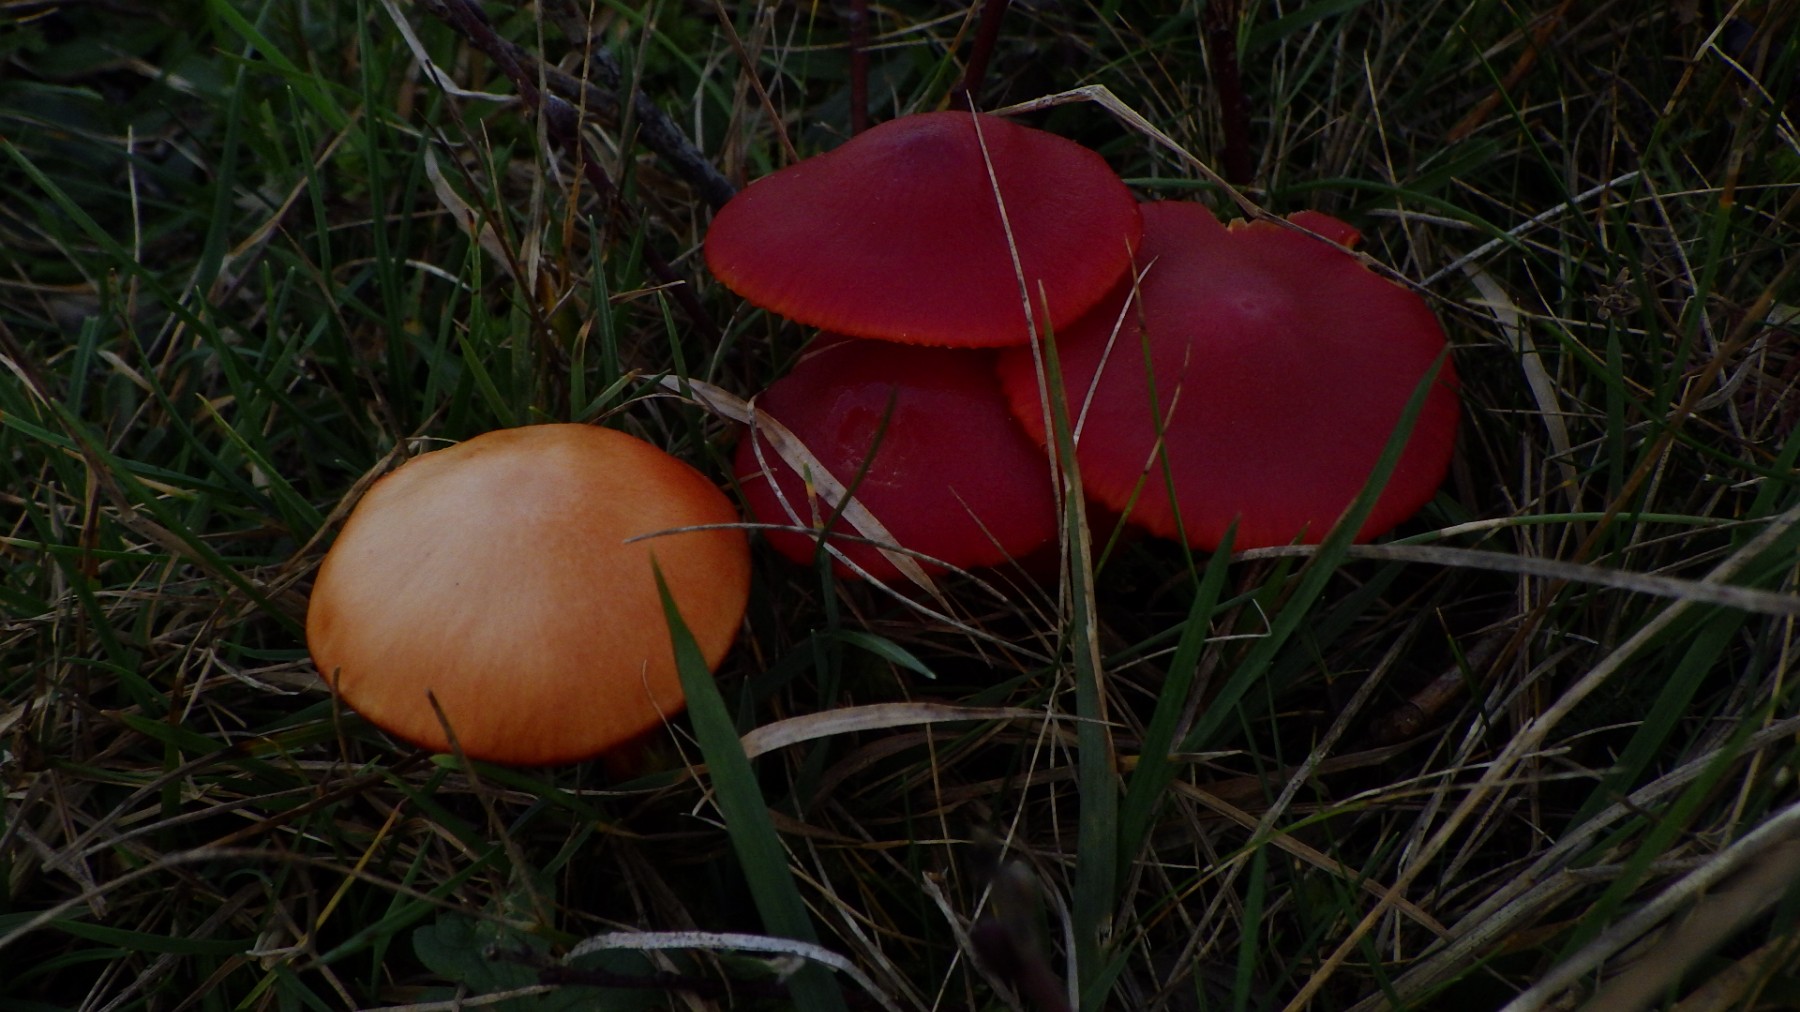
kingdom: Fungi
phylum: Basidiomycota
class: Agaricomycetes
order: Agaricales
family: Hygrophoraceae
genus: Hygrocybe
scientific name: Hygrocybe coccinea
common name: cinnober-vokshat
